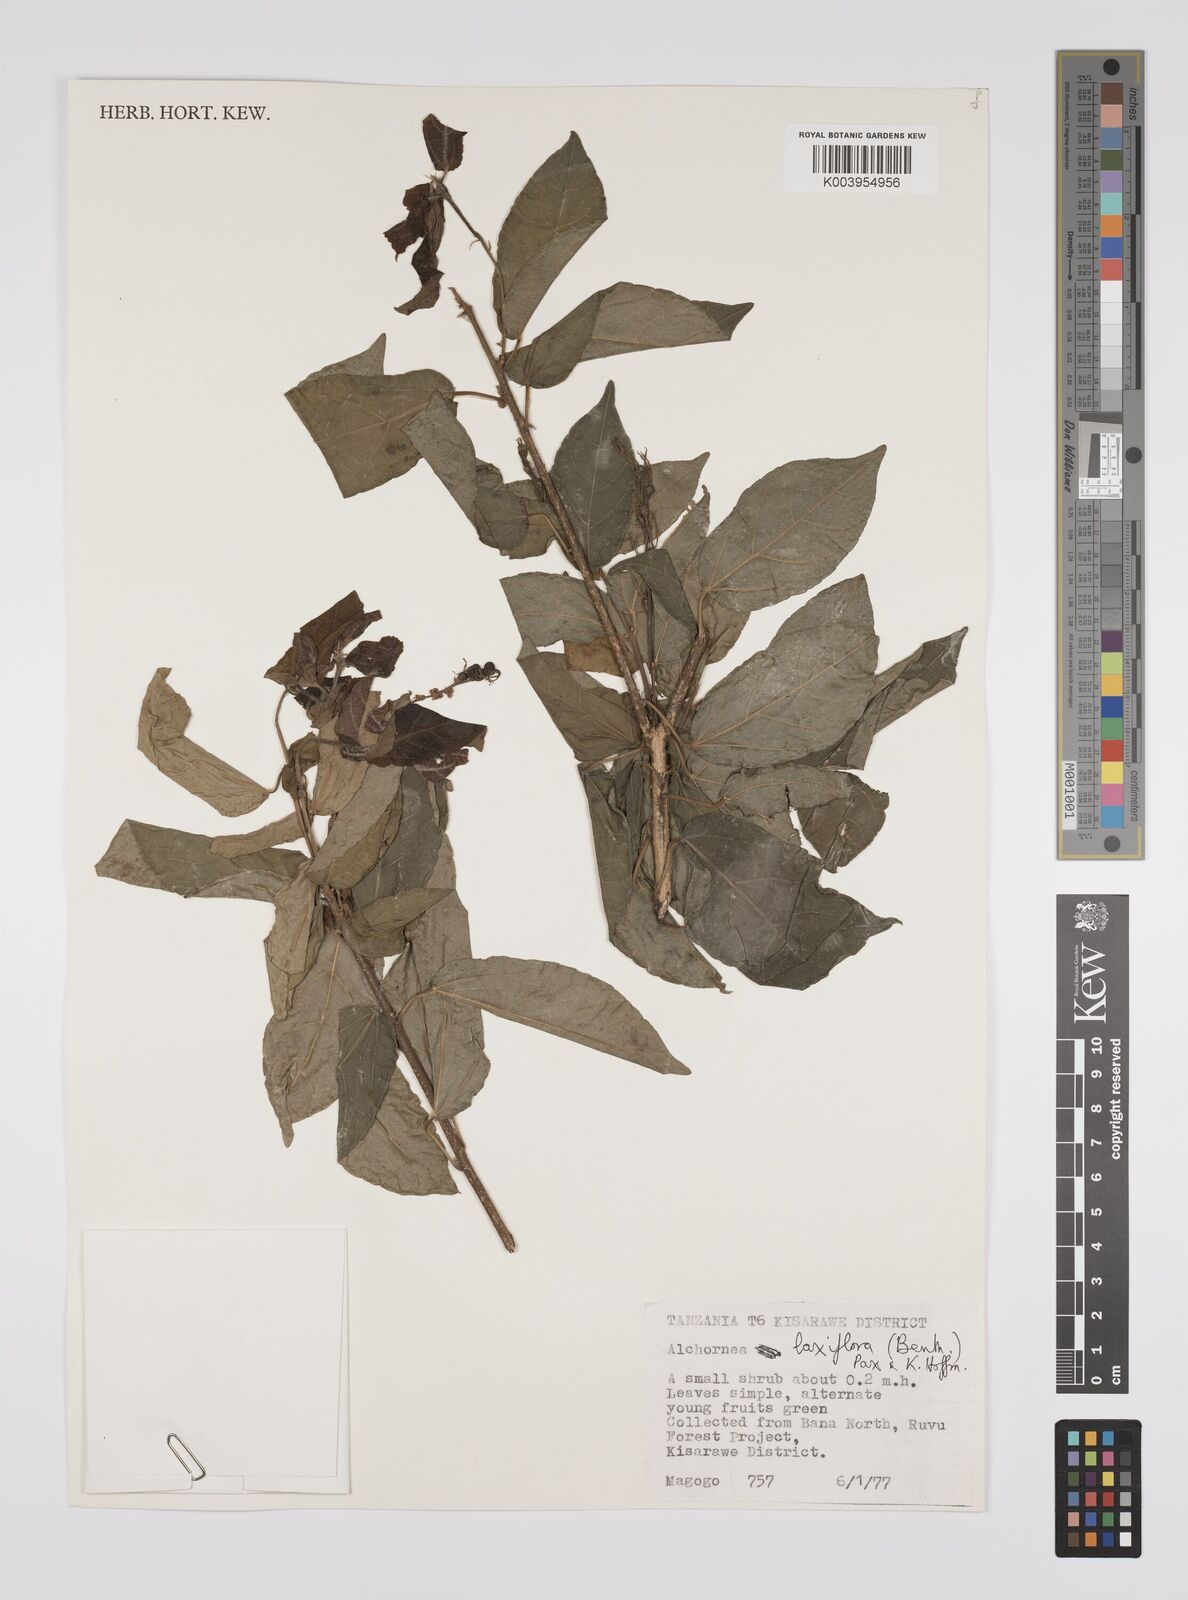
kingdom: Plantae
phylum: Tracheophyta
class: Magnoliopsida
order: Malpighiales
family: Euphorbiaceae
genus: Alchornea
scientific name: Alchornea laxiflora
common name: Lowveld bead-string
